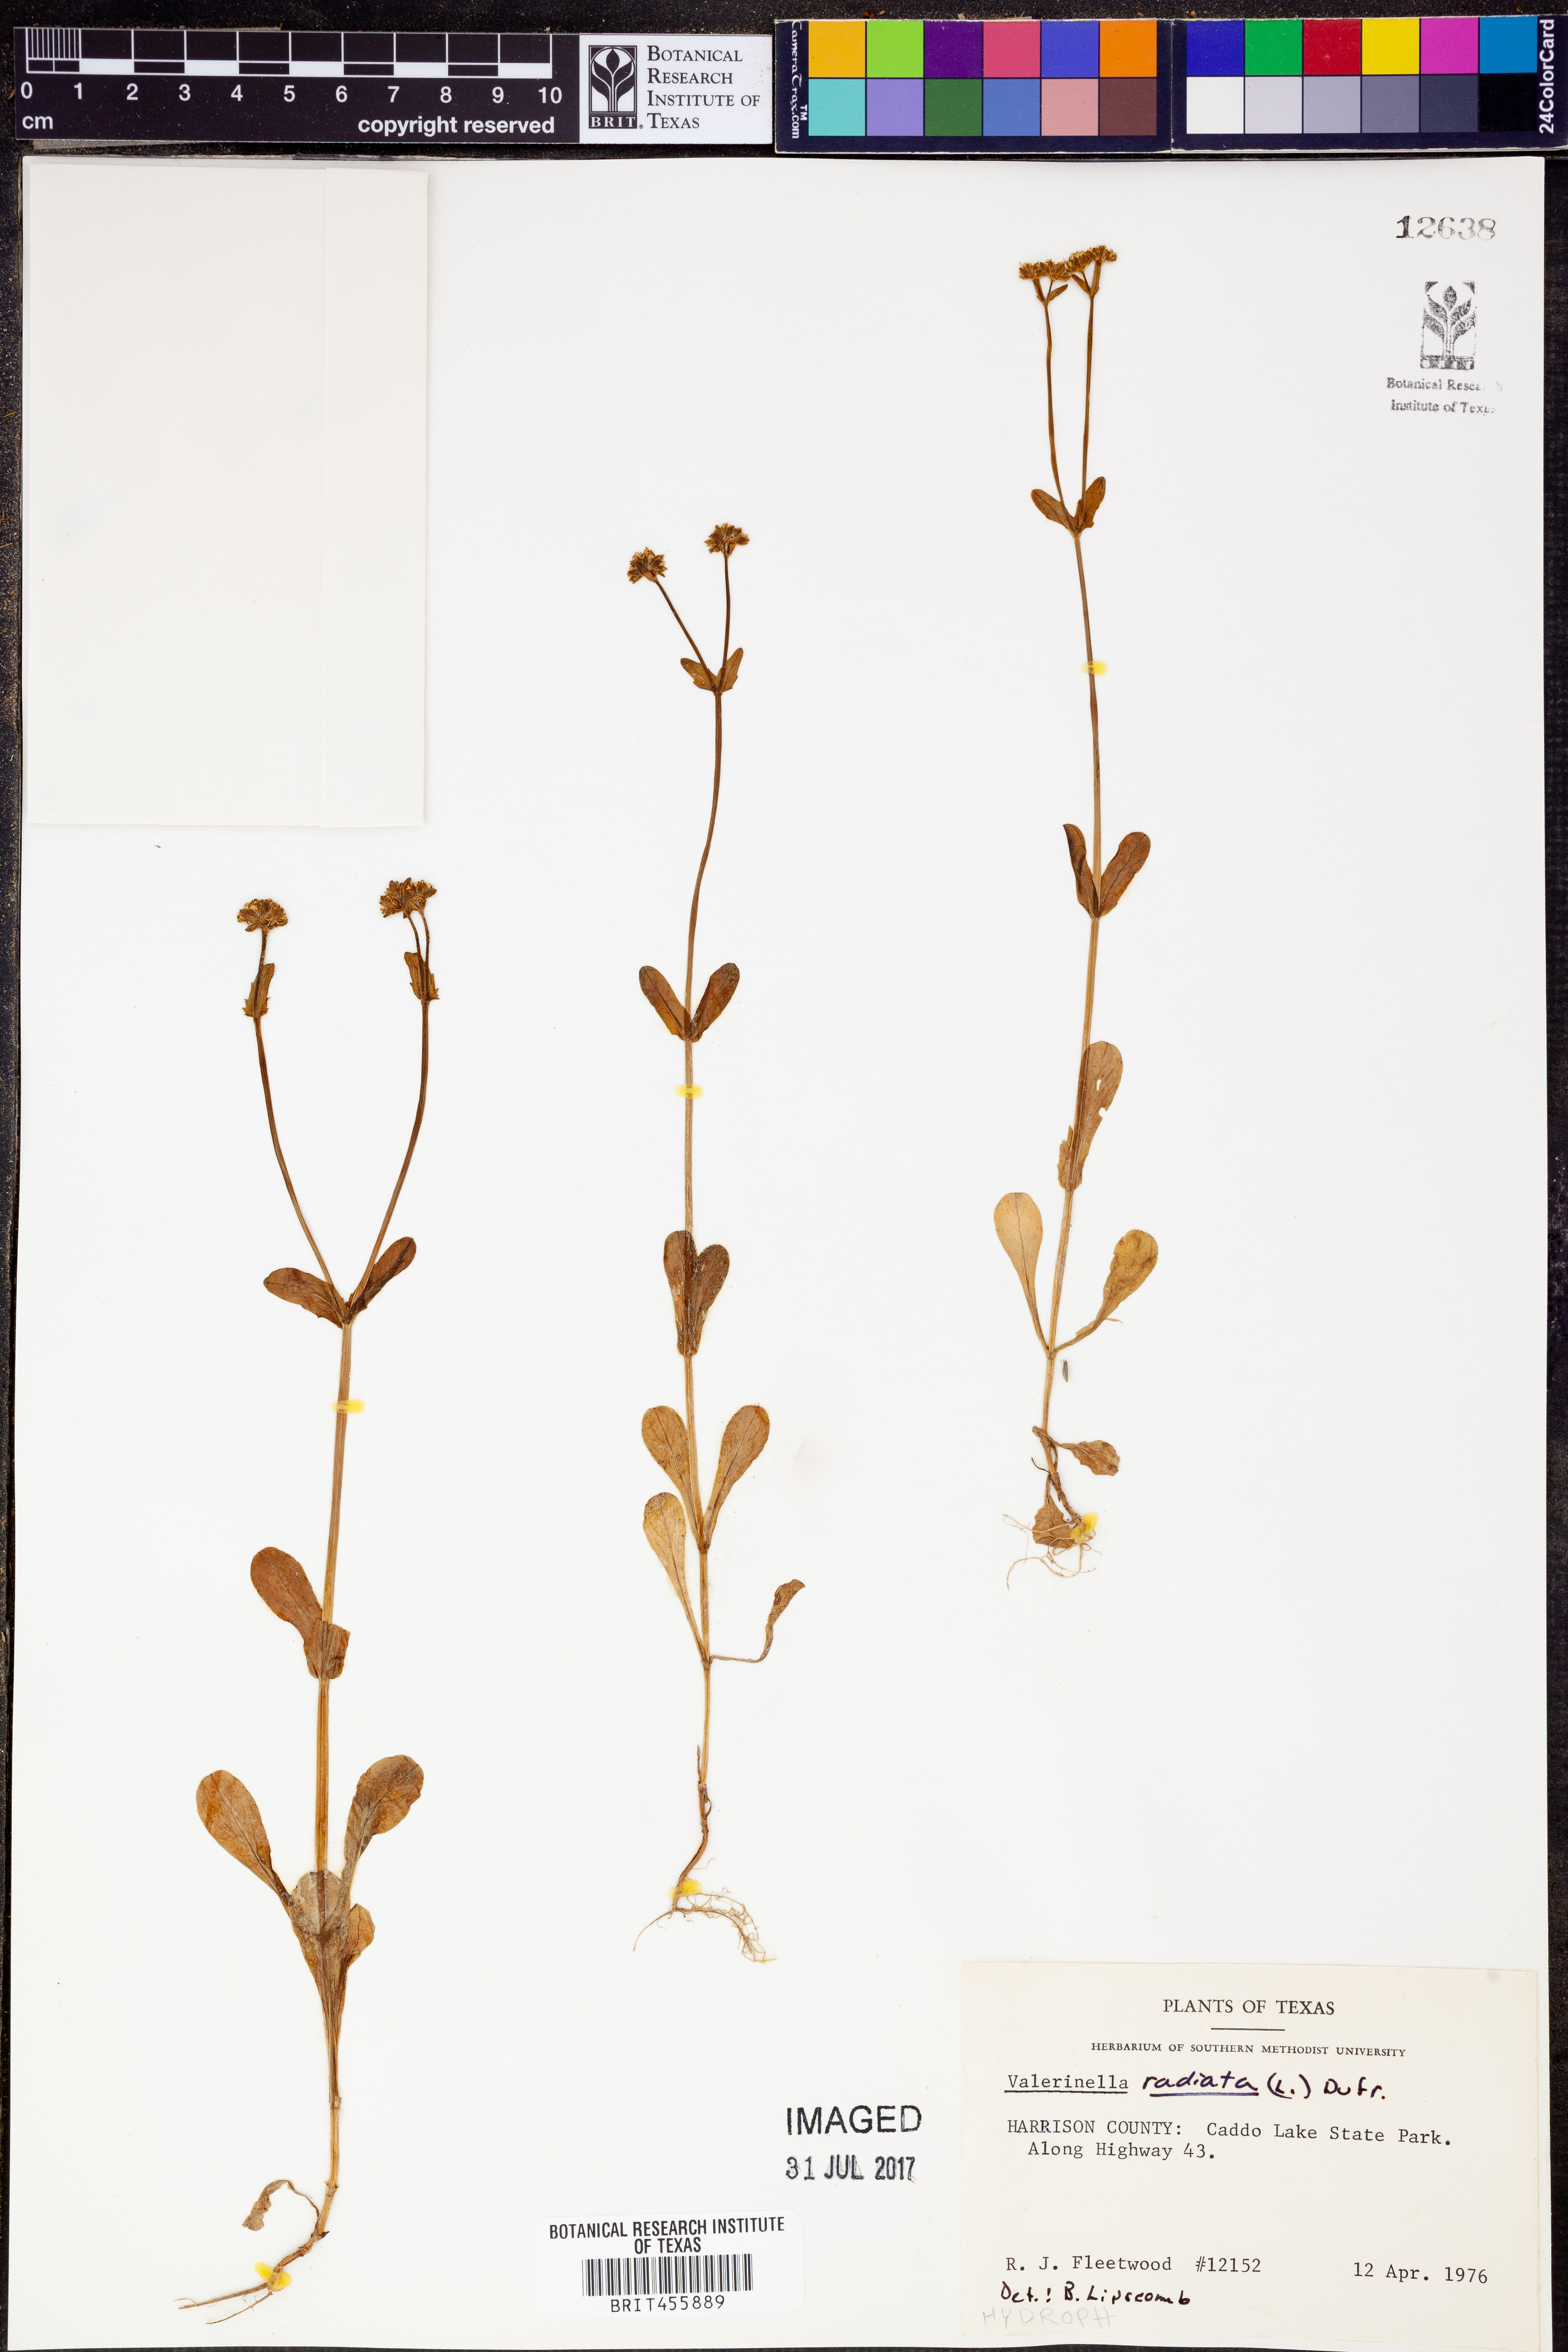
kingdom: Plantae
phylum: Tracheophyta
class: Magnoliopsida
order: Dipsacales
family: Caprifoliaceae
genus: Valerianella
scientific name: Valerianella radiata
